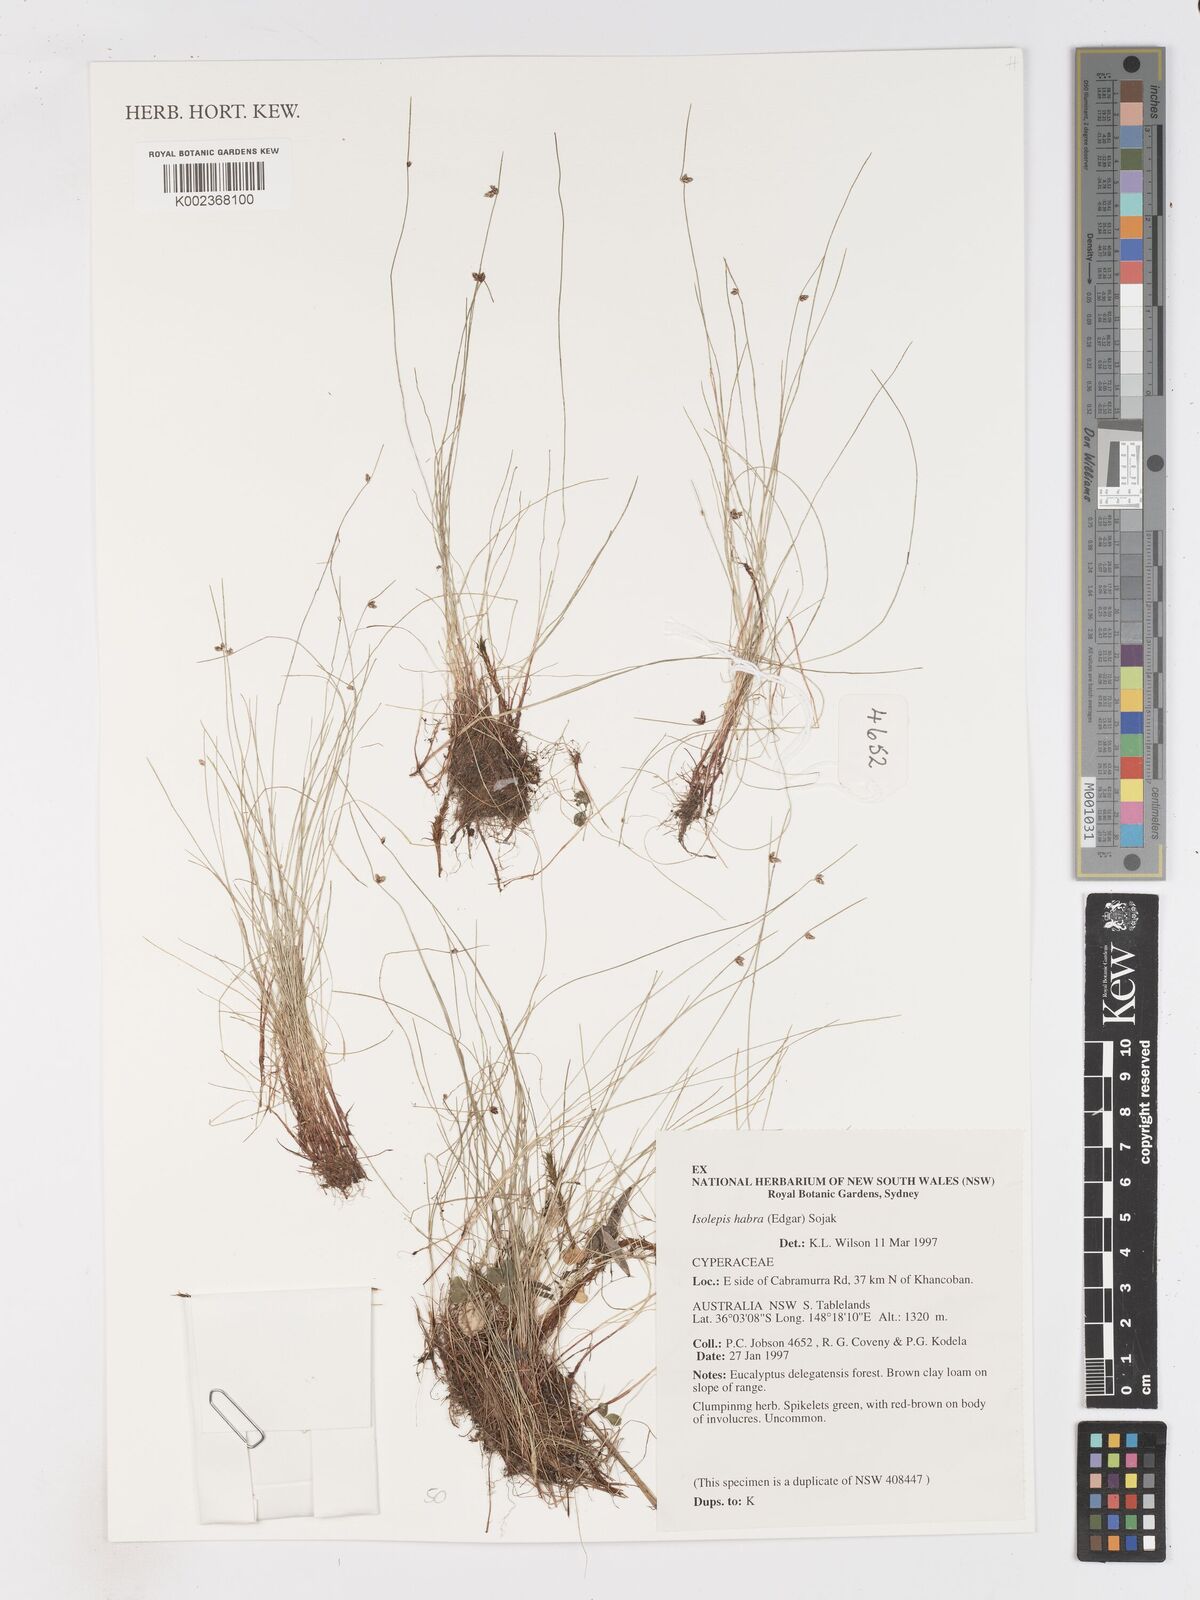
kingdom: Plantae
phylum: Tracheophyta
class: Liliopsida
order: Poales
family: Cyperaceae
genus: Isolepis
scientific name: Isolepis gaudichaudiana
